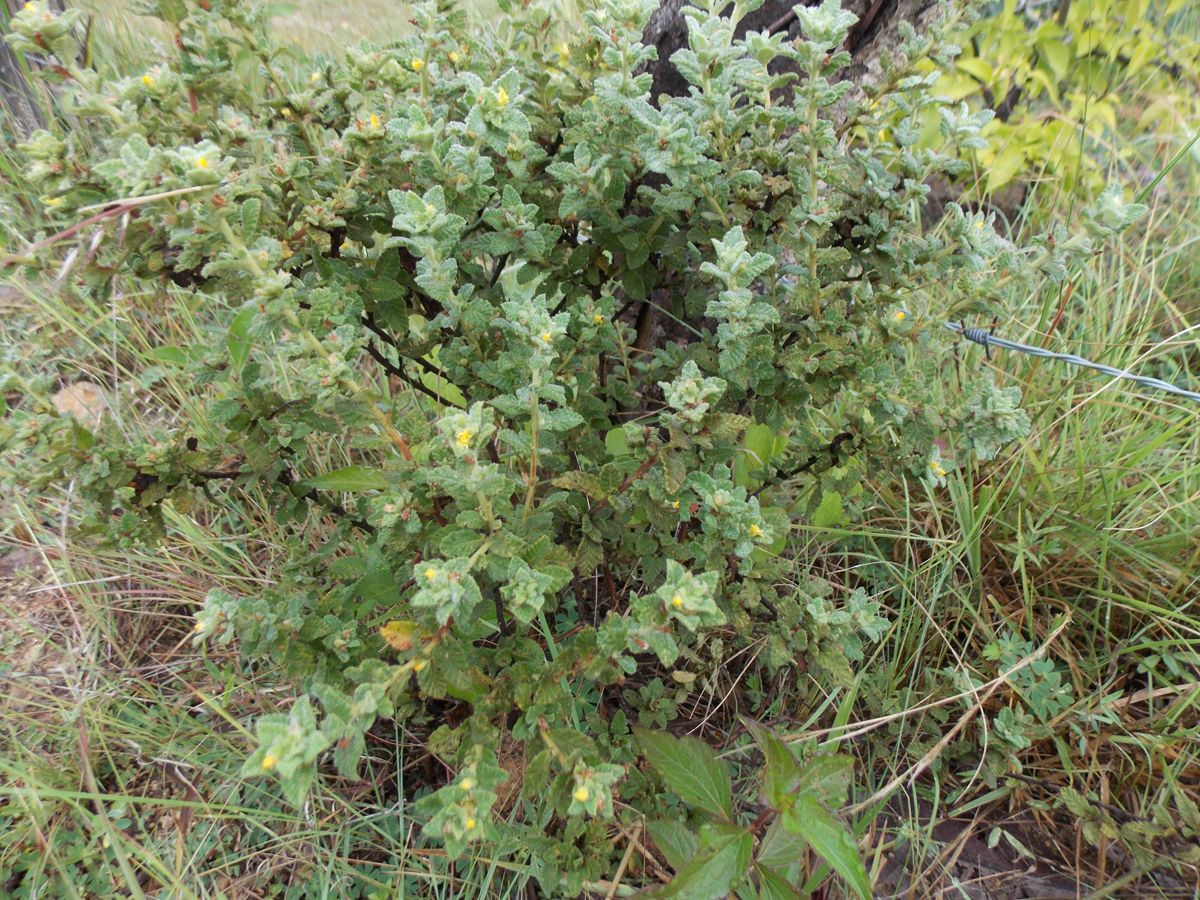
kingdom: Plantae
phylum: Tracheophyta
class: Magnoliopsida
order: Malpighiales
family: Turneraceae
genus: Turnera
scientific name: Turnera diffusa
